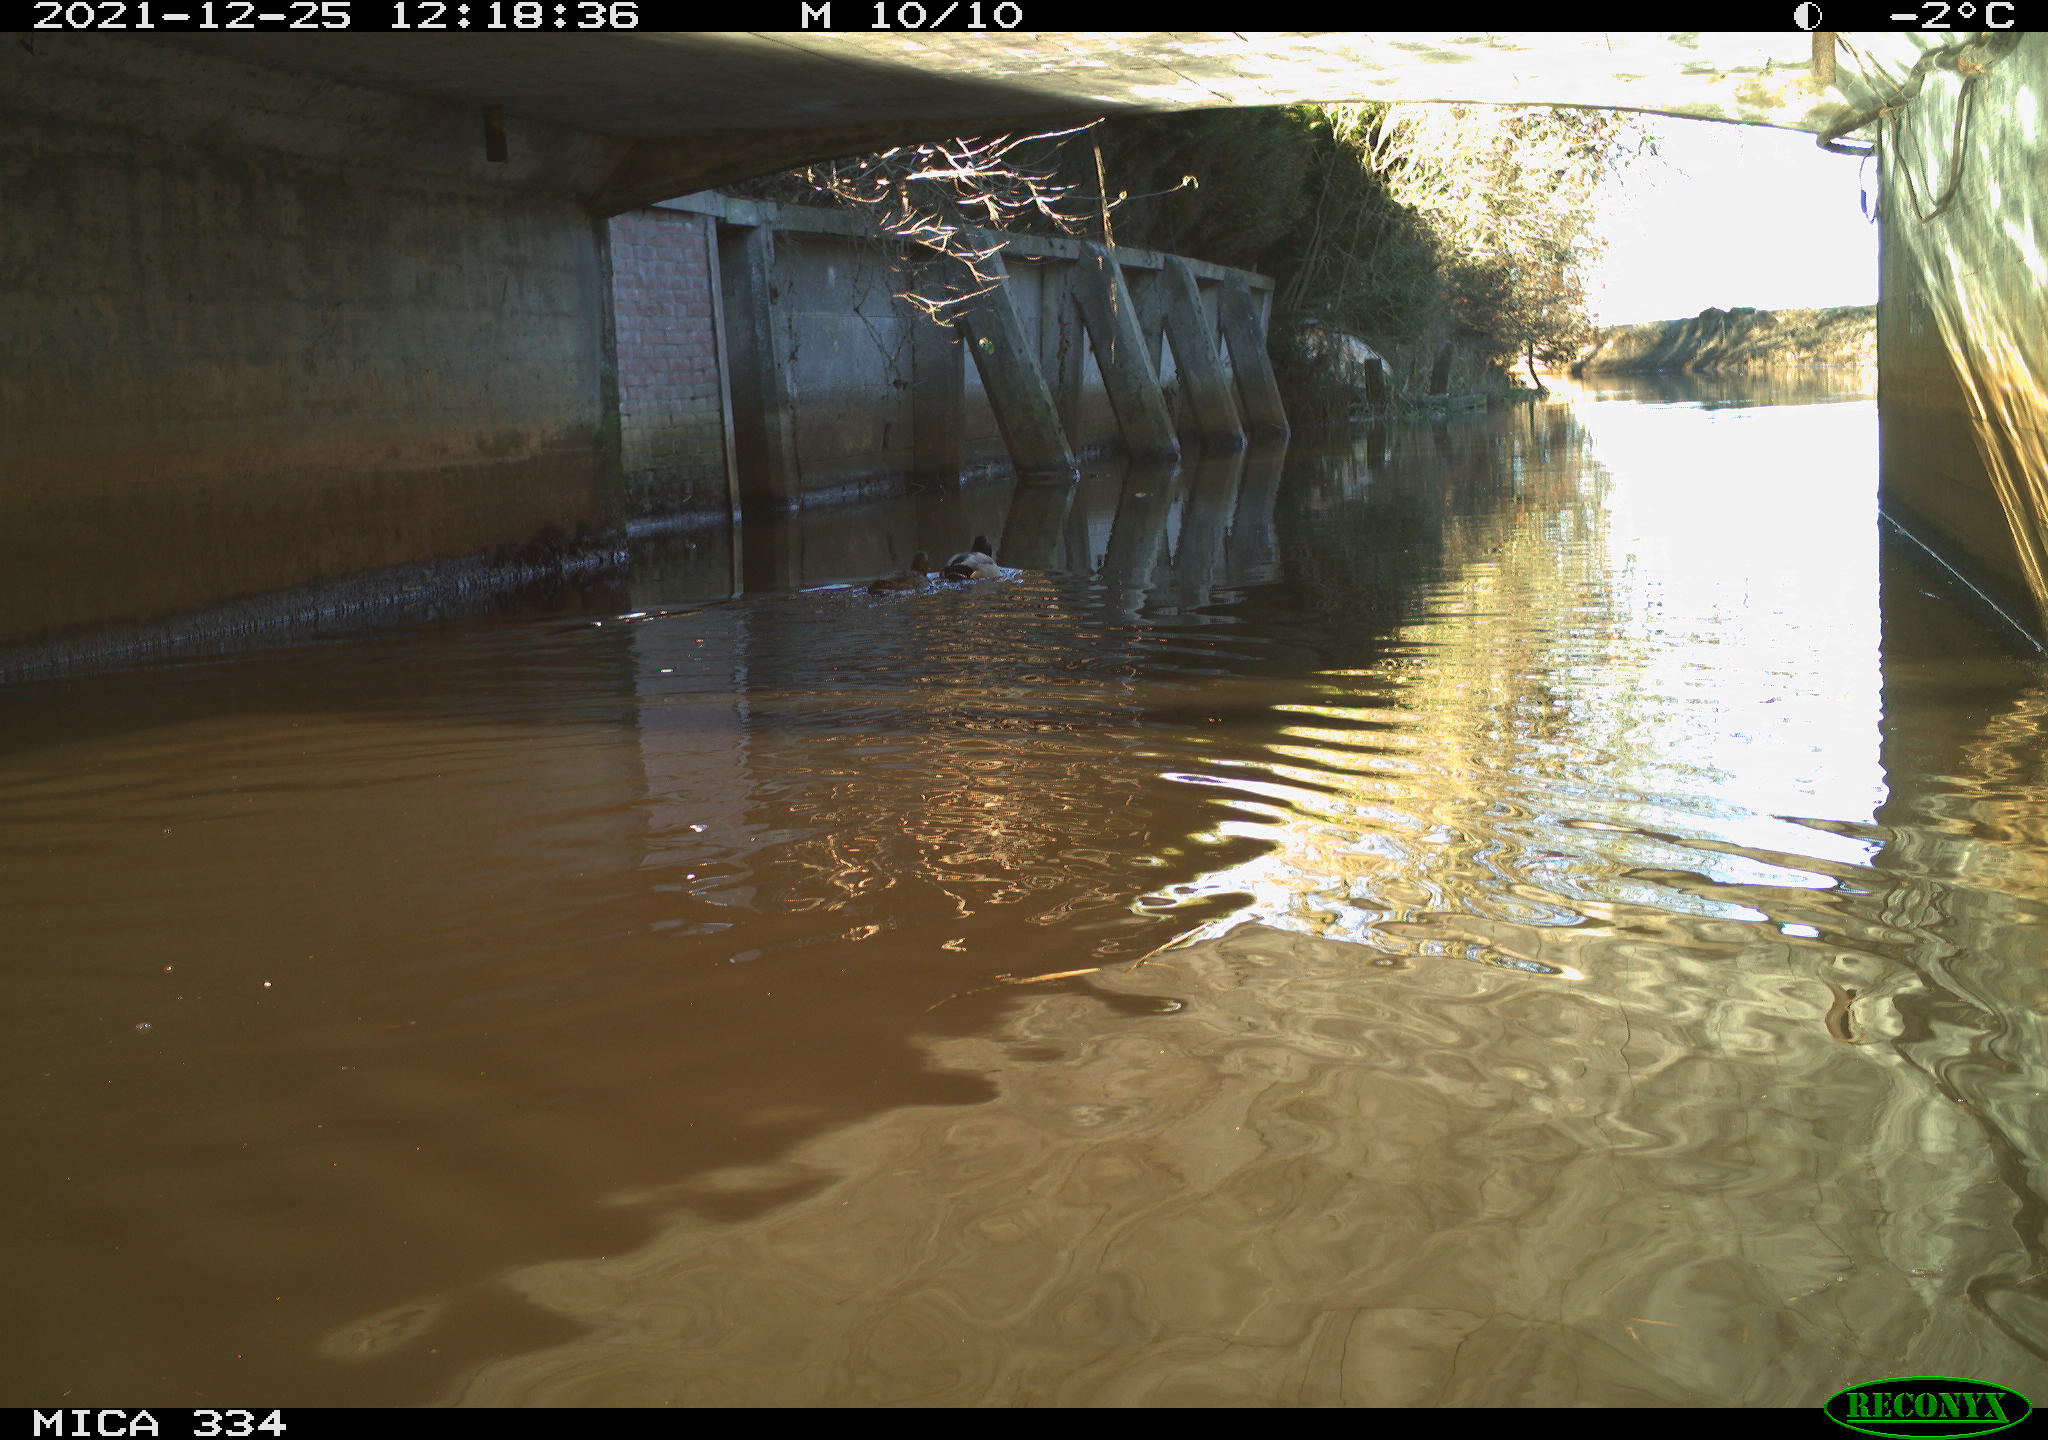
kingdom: Animalia
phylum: Chordata
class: Aves
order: Anseriformes
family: Anatidae
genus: Anas
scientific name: Anas platyrhynchos
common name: Mallard
